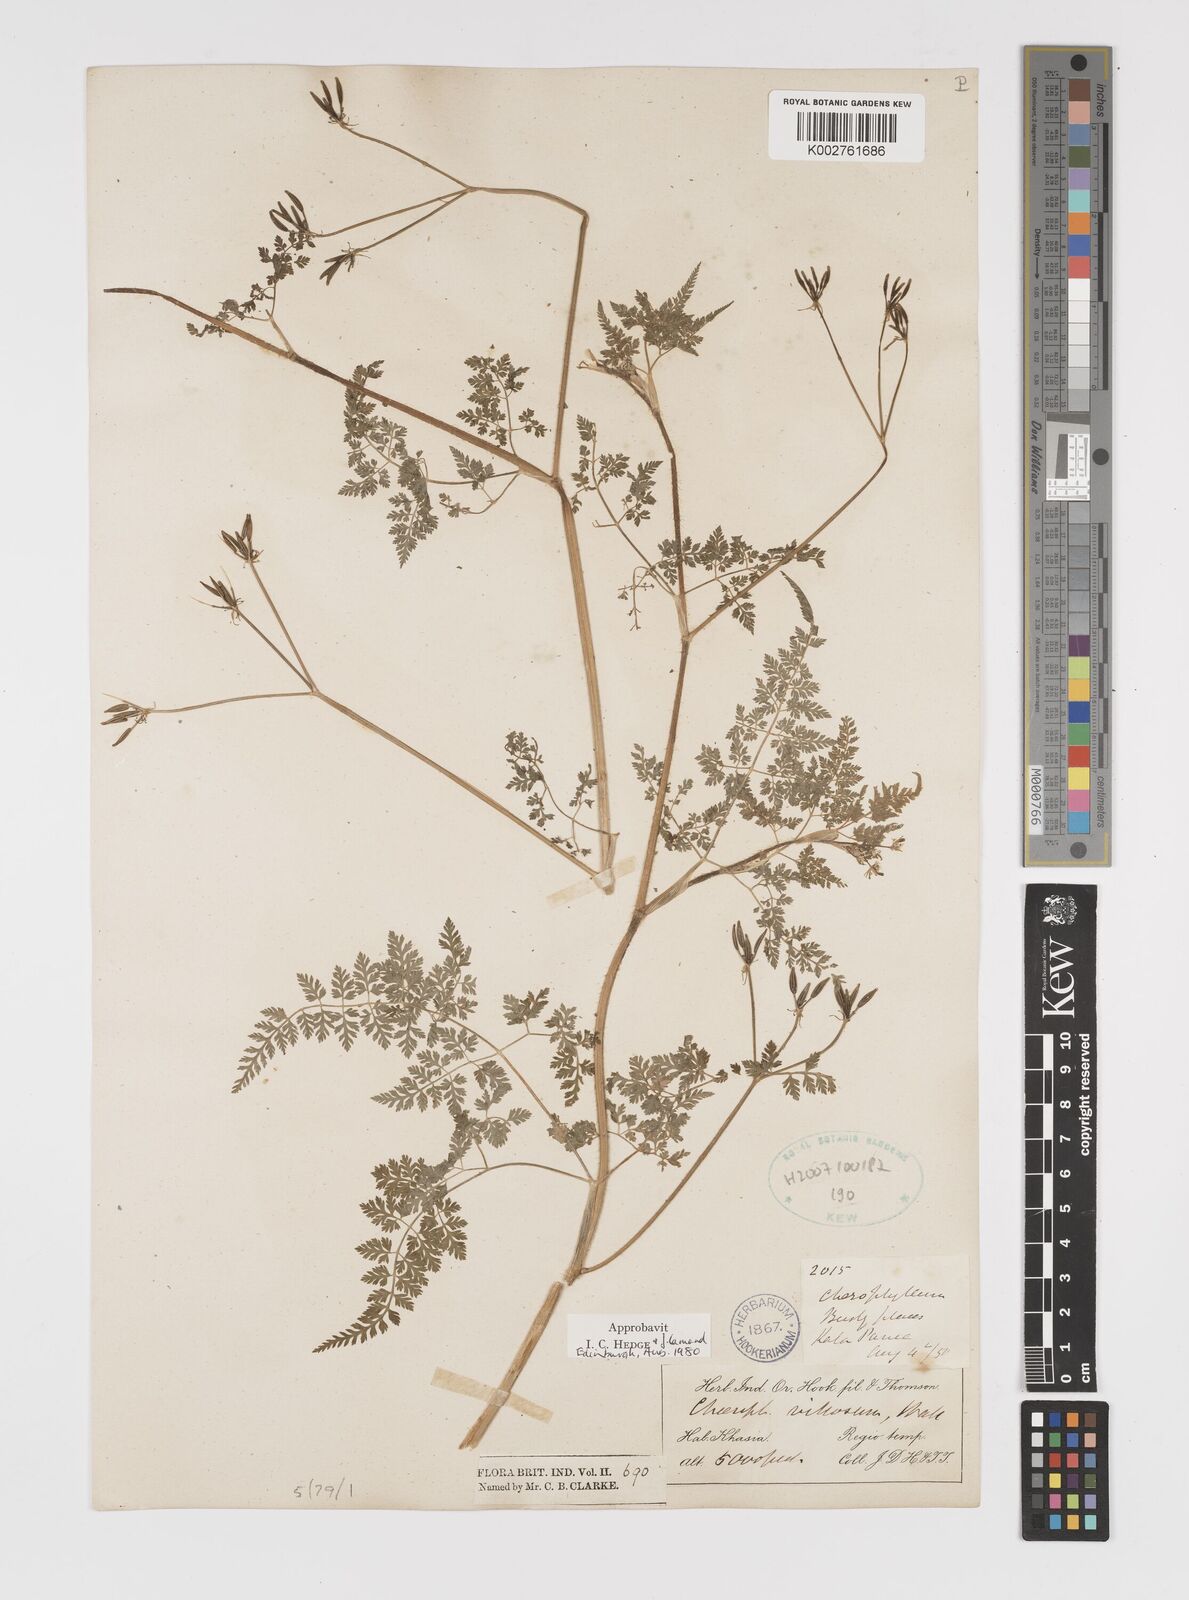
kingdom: Plantae
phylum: Tracheophyta
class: Magnoliopsida
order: Apiales
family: Apiaceae
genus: Chaerophyllum
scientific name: Chaerophyllum villosum
